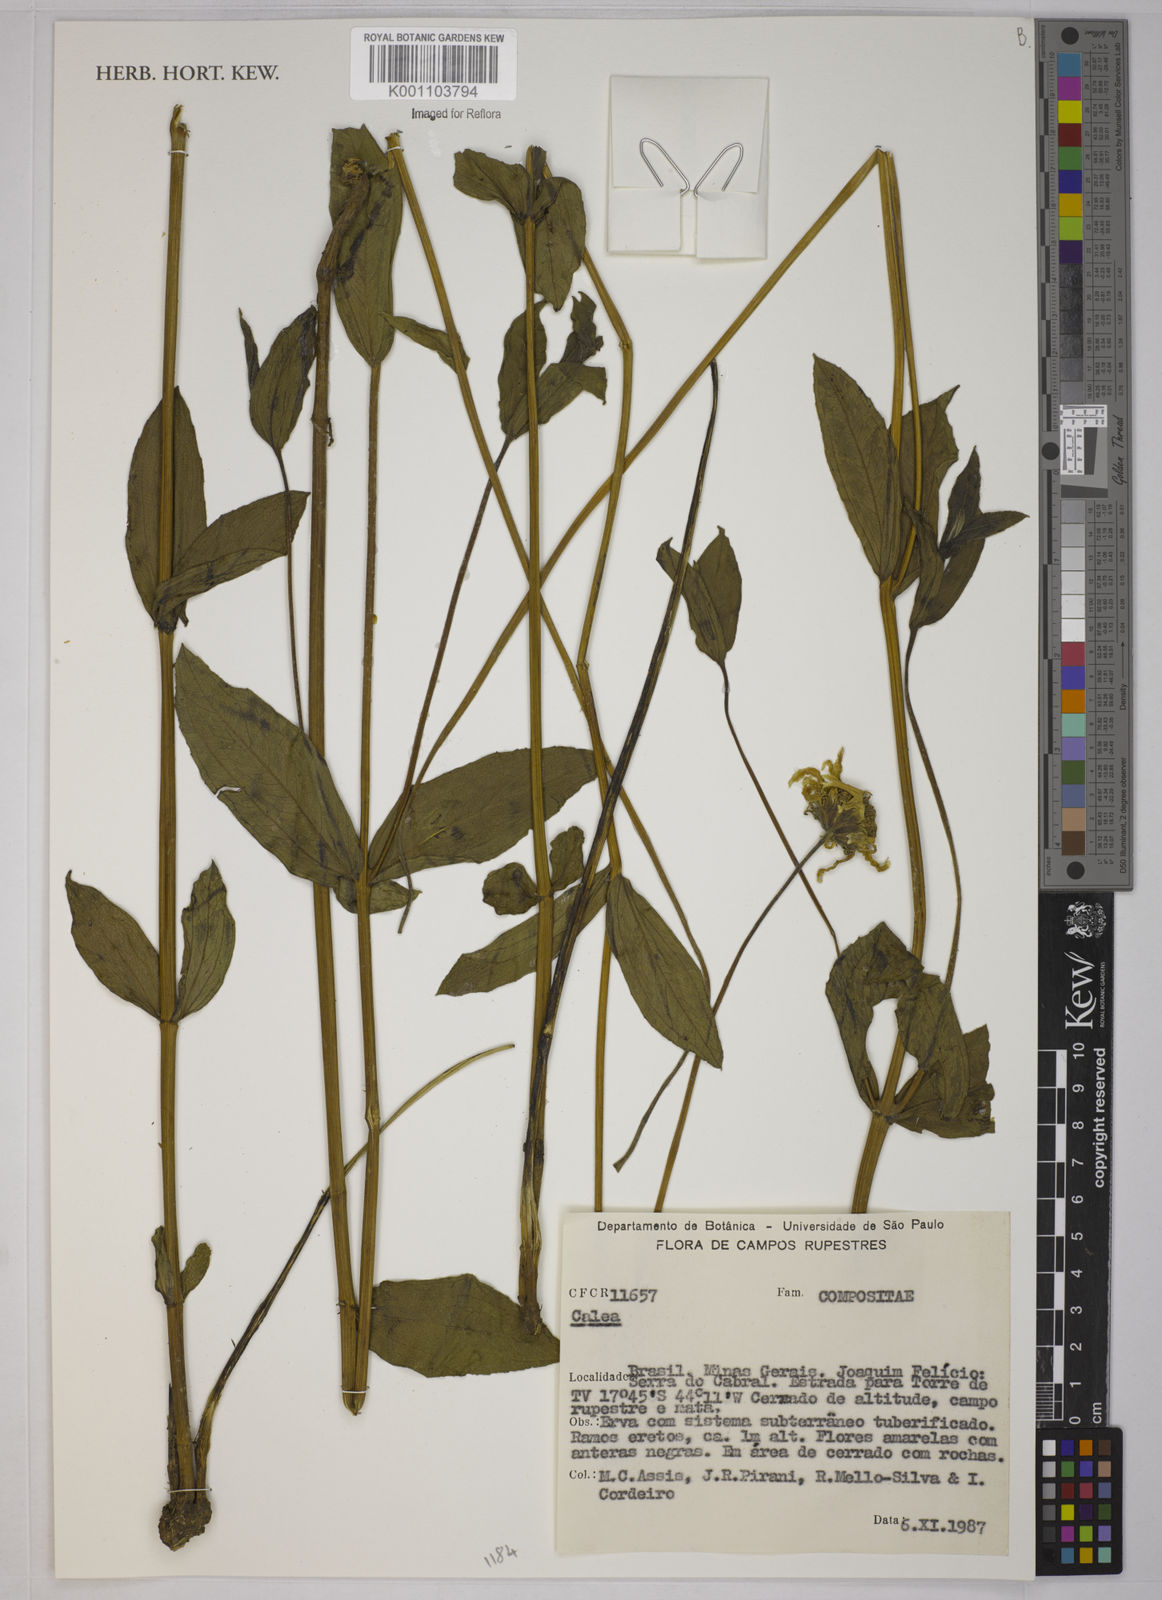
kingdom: Plantae
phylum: Tracheophyta
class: Magnoliopsida
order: Asterales
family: Asteraceae
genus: Calea
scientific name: Calea
